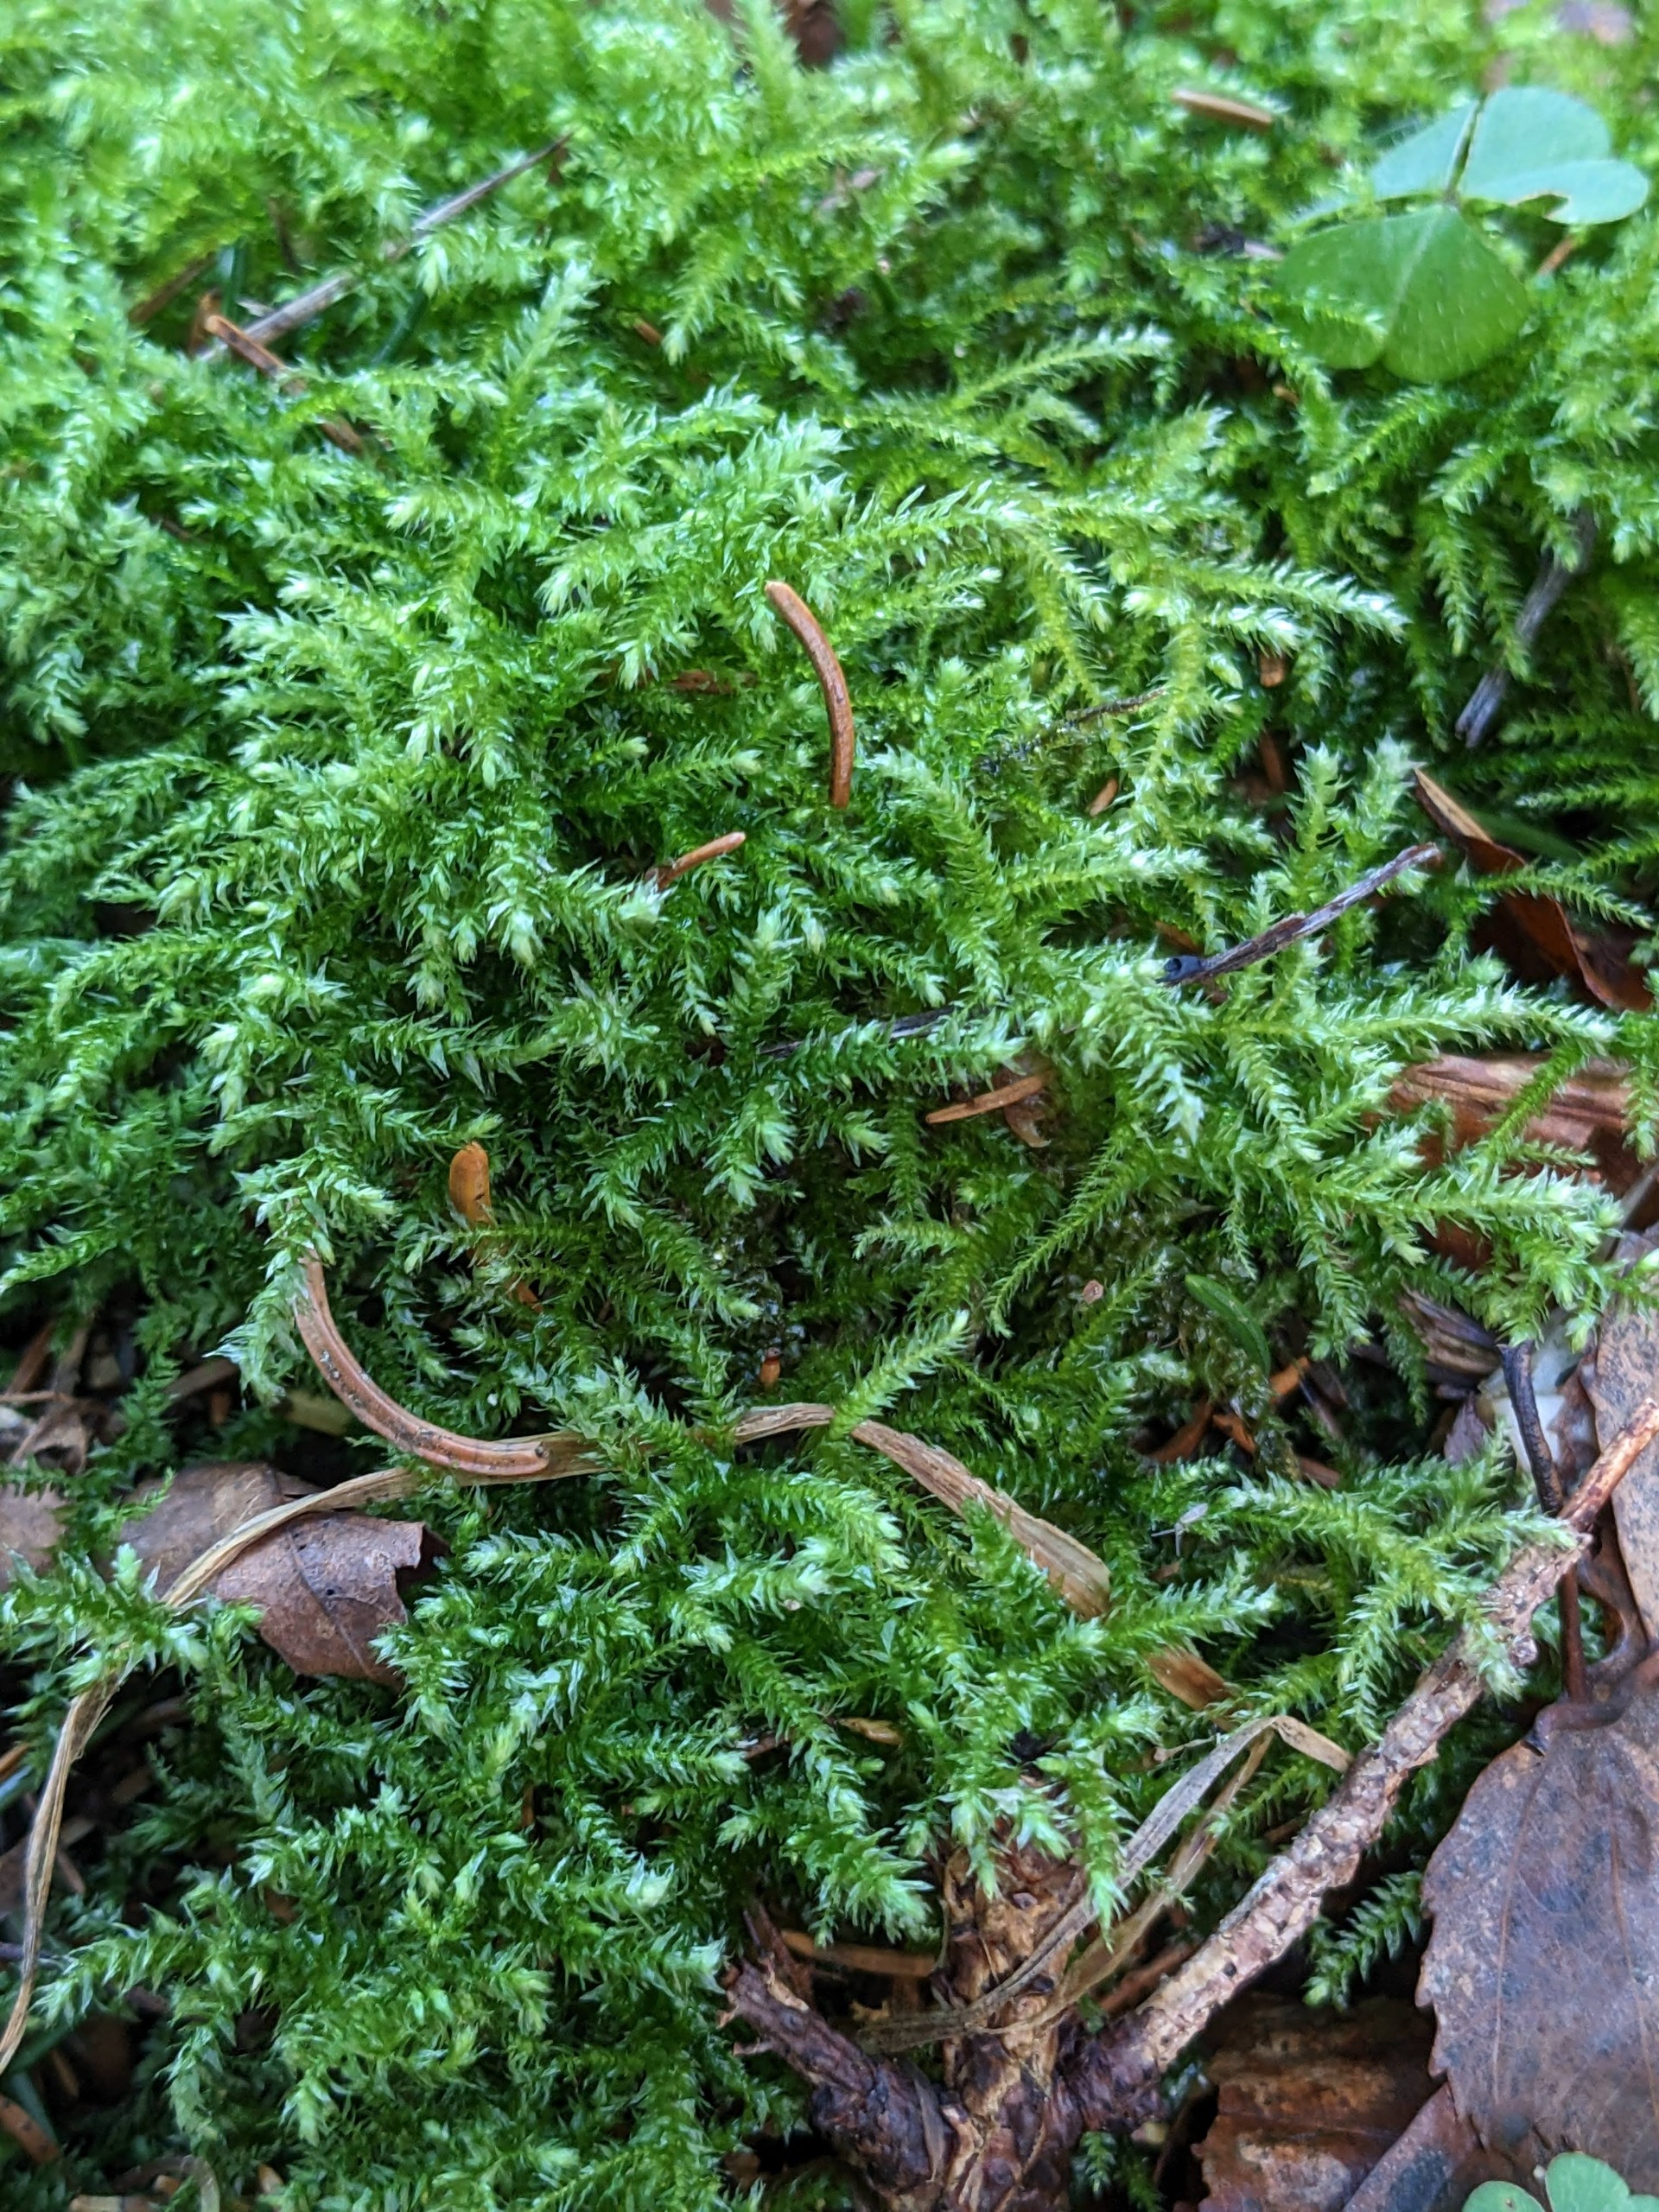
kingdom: Plantae
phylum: Bryophyta
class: Bryopsida
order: Hypnales
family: Brachytheciaceae
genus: Eurhynchium
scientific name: Eurhynchium striatum
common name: Stribet næbmos
